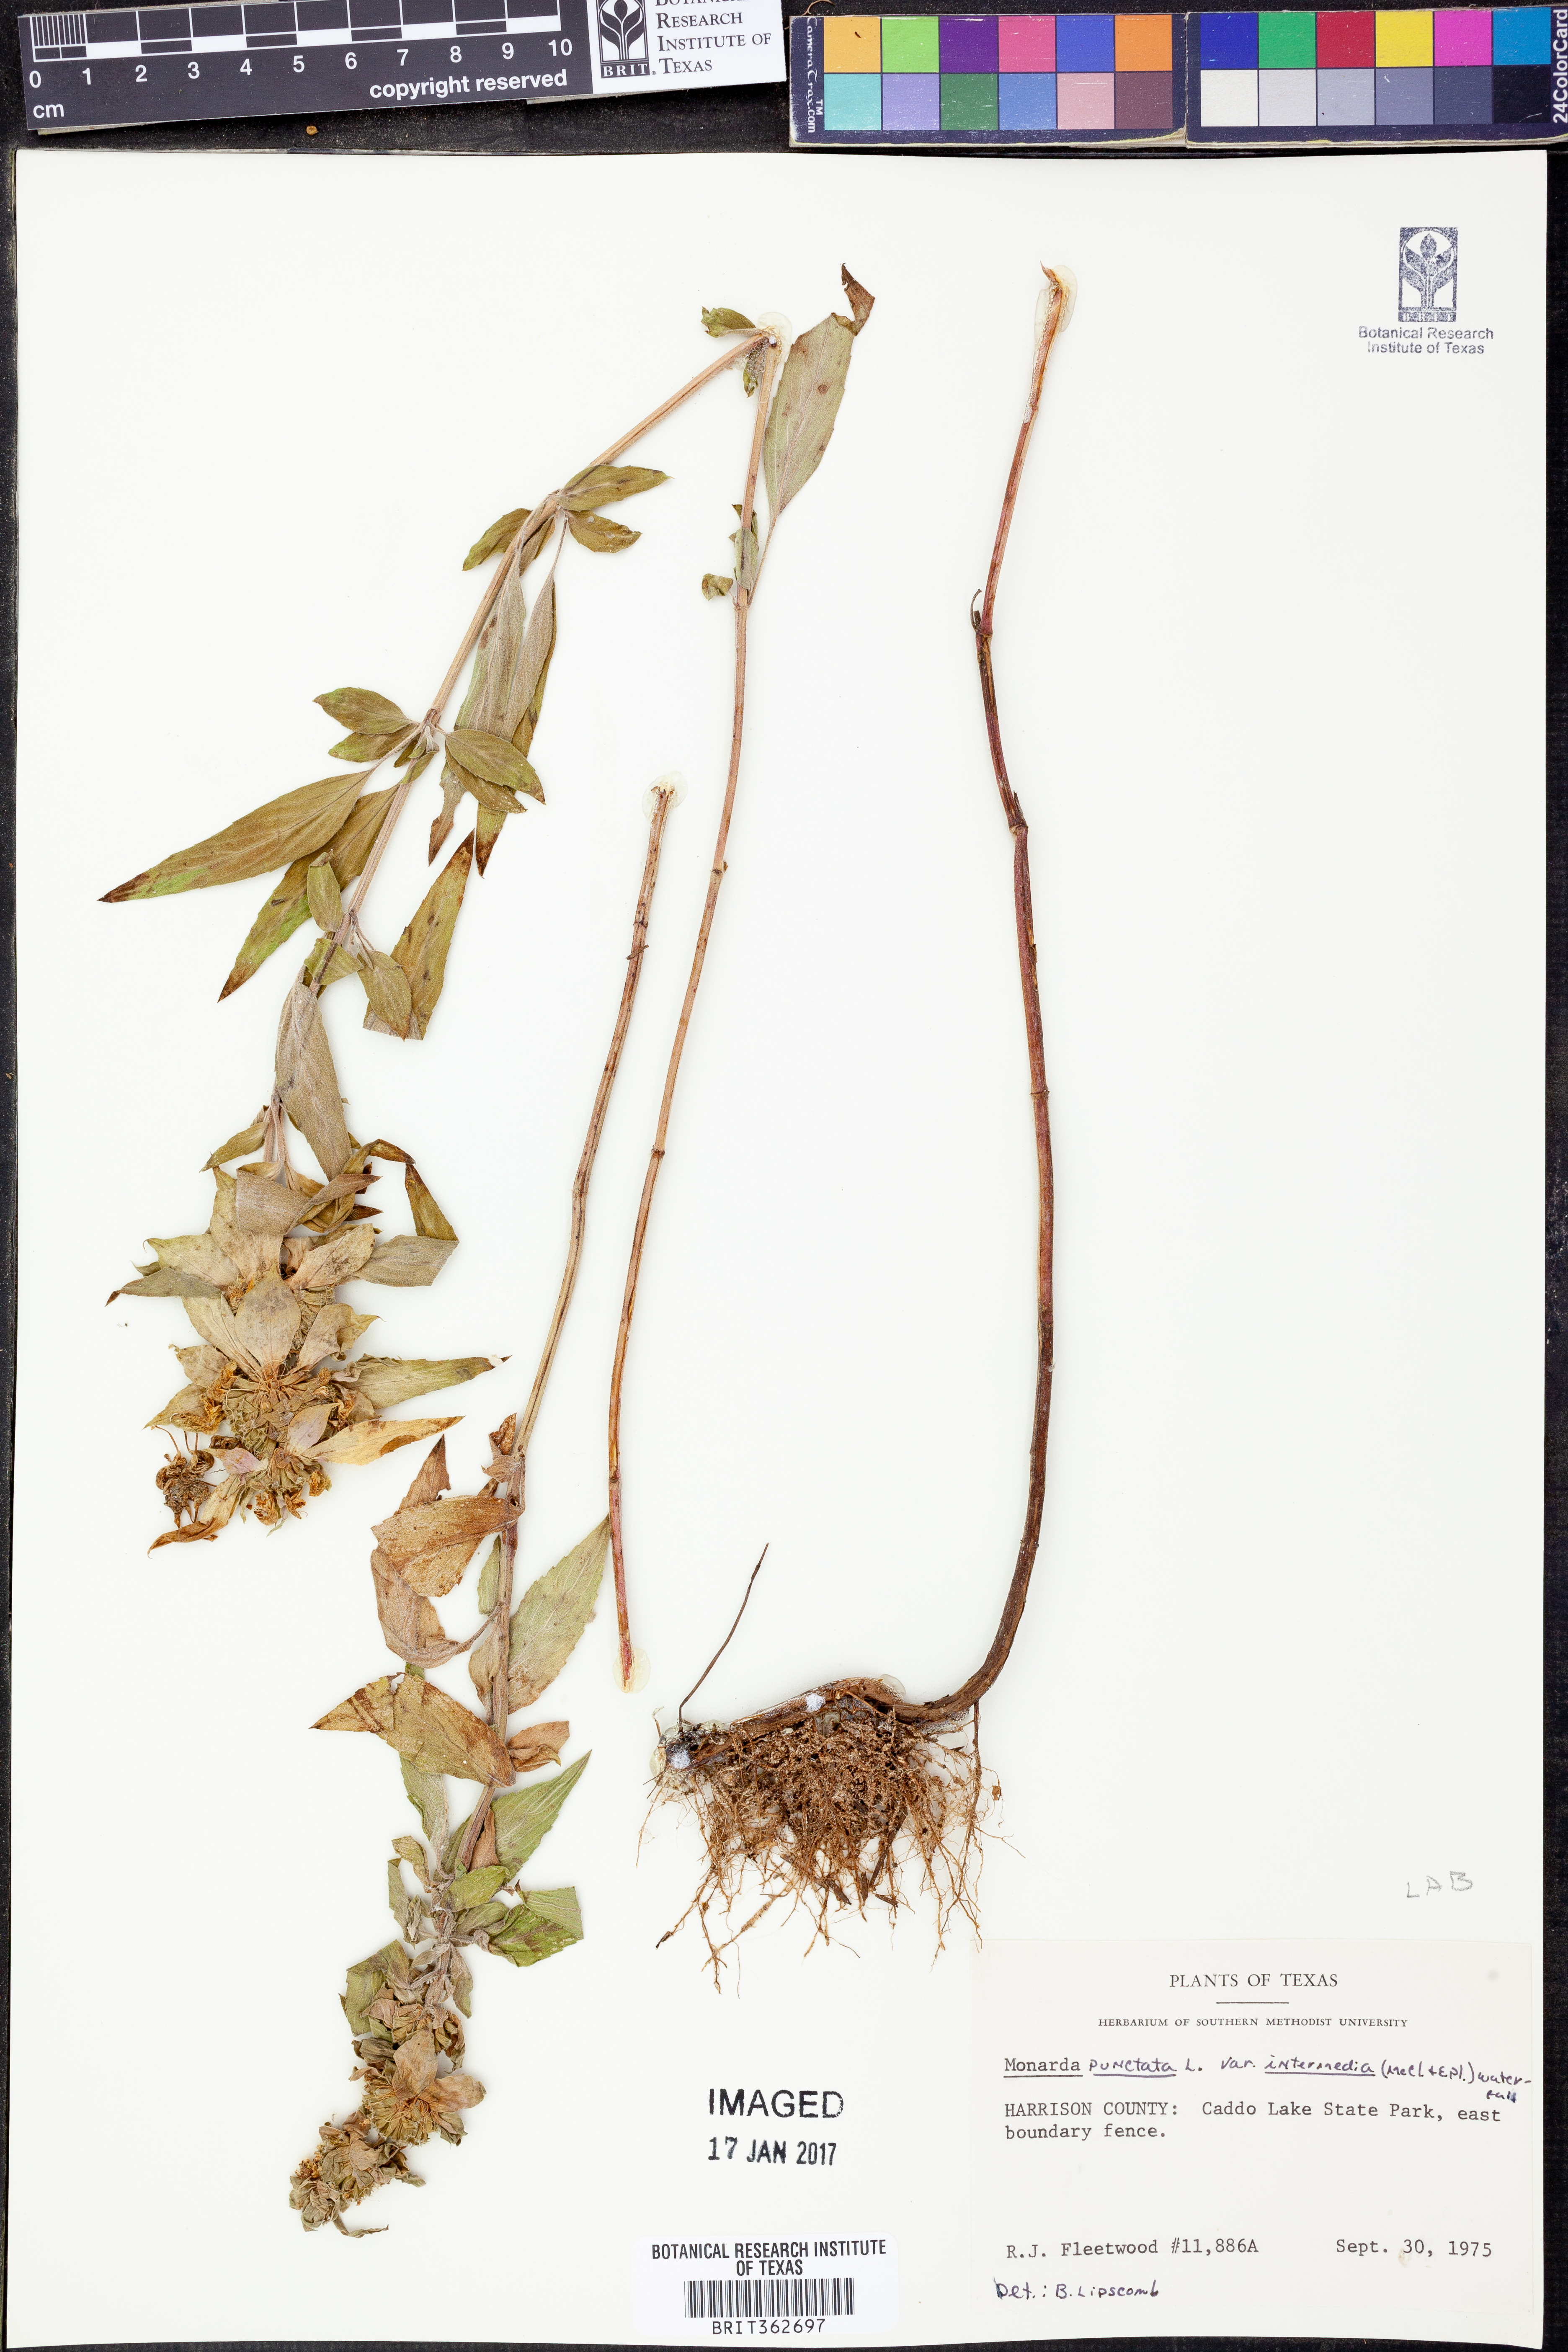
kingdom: Plantae
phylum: Tracheophyta
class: Magnoliopsida
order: Lamiales
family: Lamiaceae
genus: Monarda
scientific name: Monarda punctata
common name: Dotted monarda
